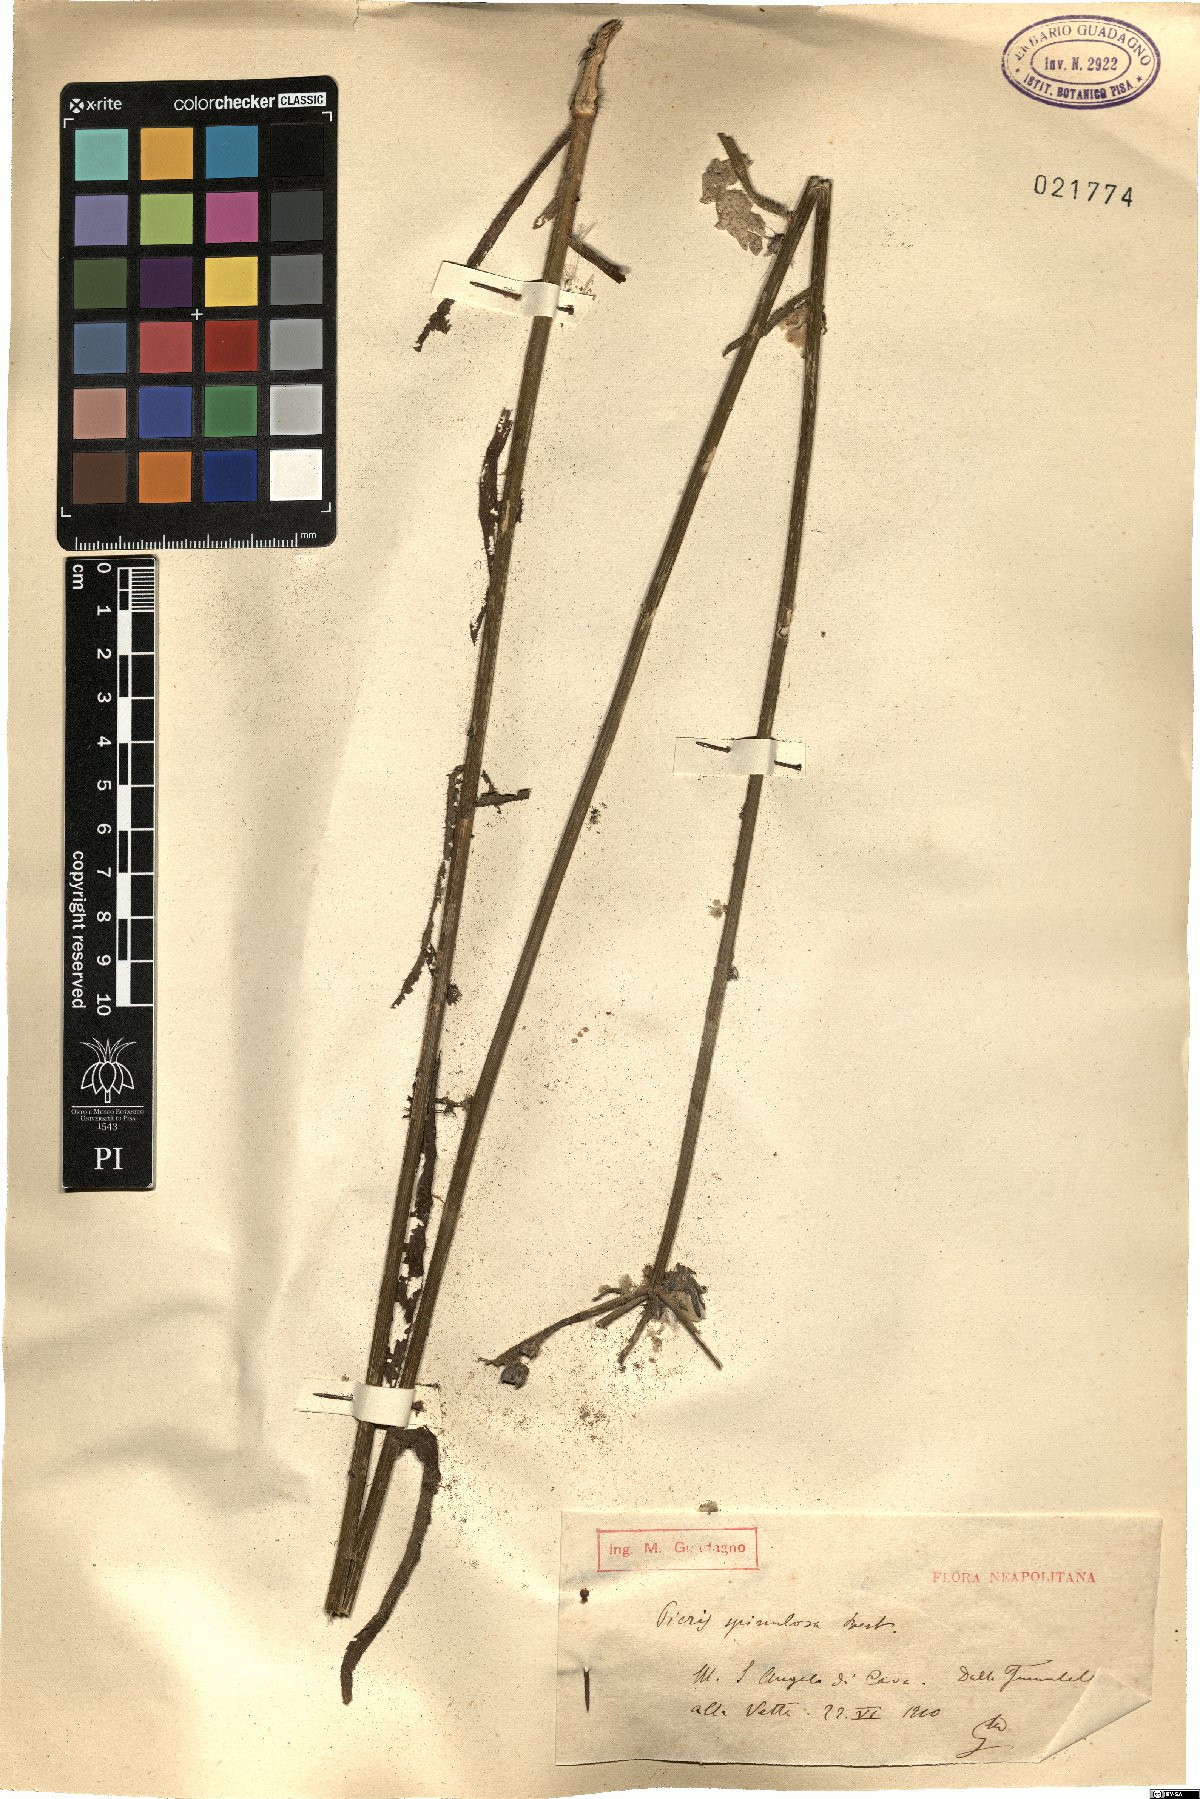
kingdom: Plantae
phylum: Tracheophyta
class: Magnoliopsida
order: Asterales
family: Asteraceae
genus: Picris
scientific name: Picris hieracioides
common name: Hawkweed oxtongue
